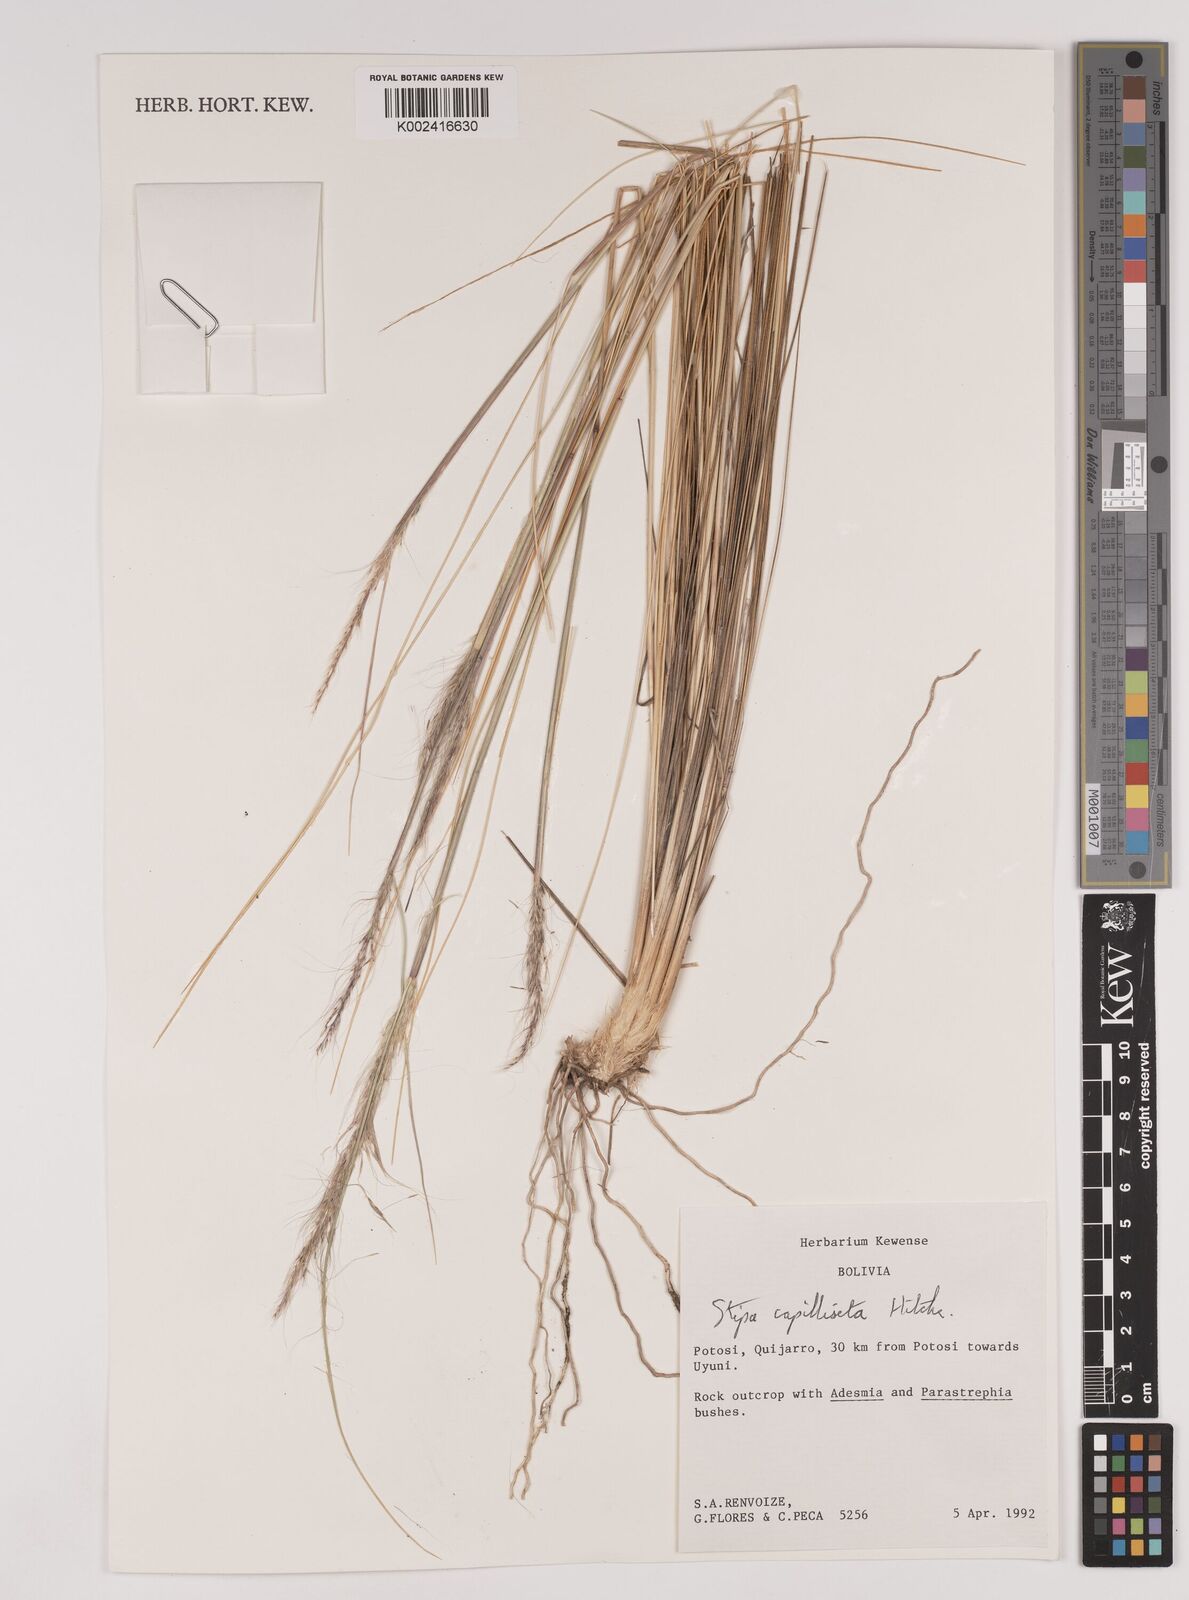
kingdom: Plantae
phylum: Tracheophyta
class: Liliopsida
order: Poales
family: Poaceae
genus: Jarava
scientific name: Jarava leptostachya
